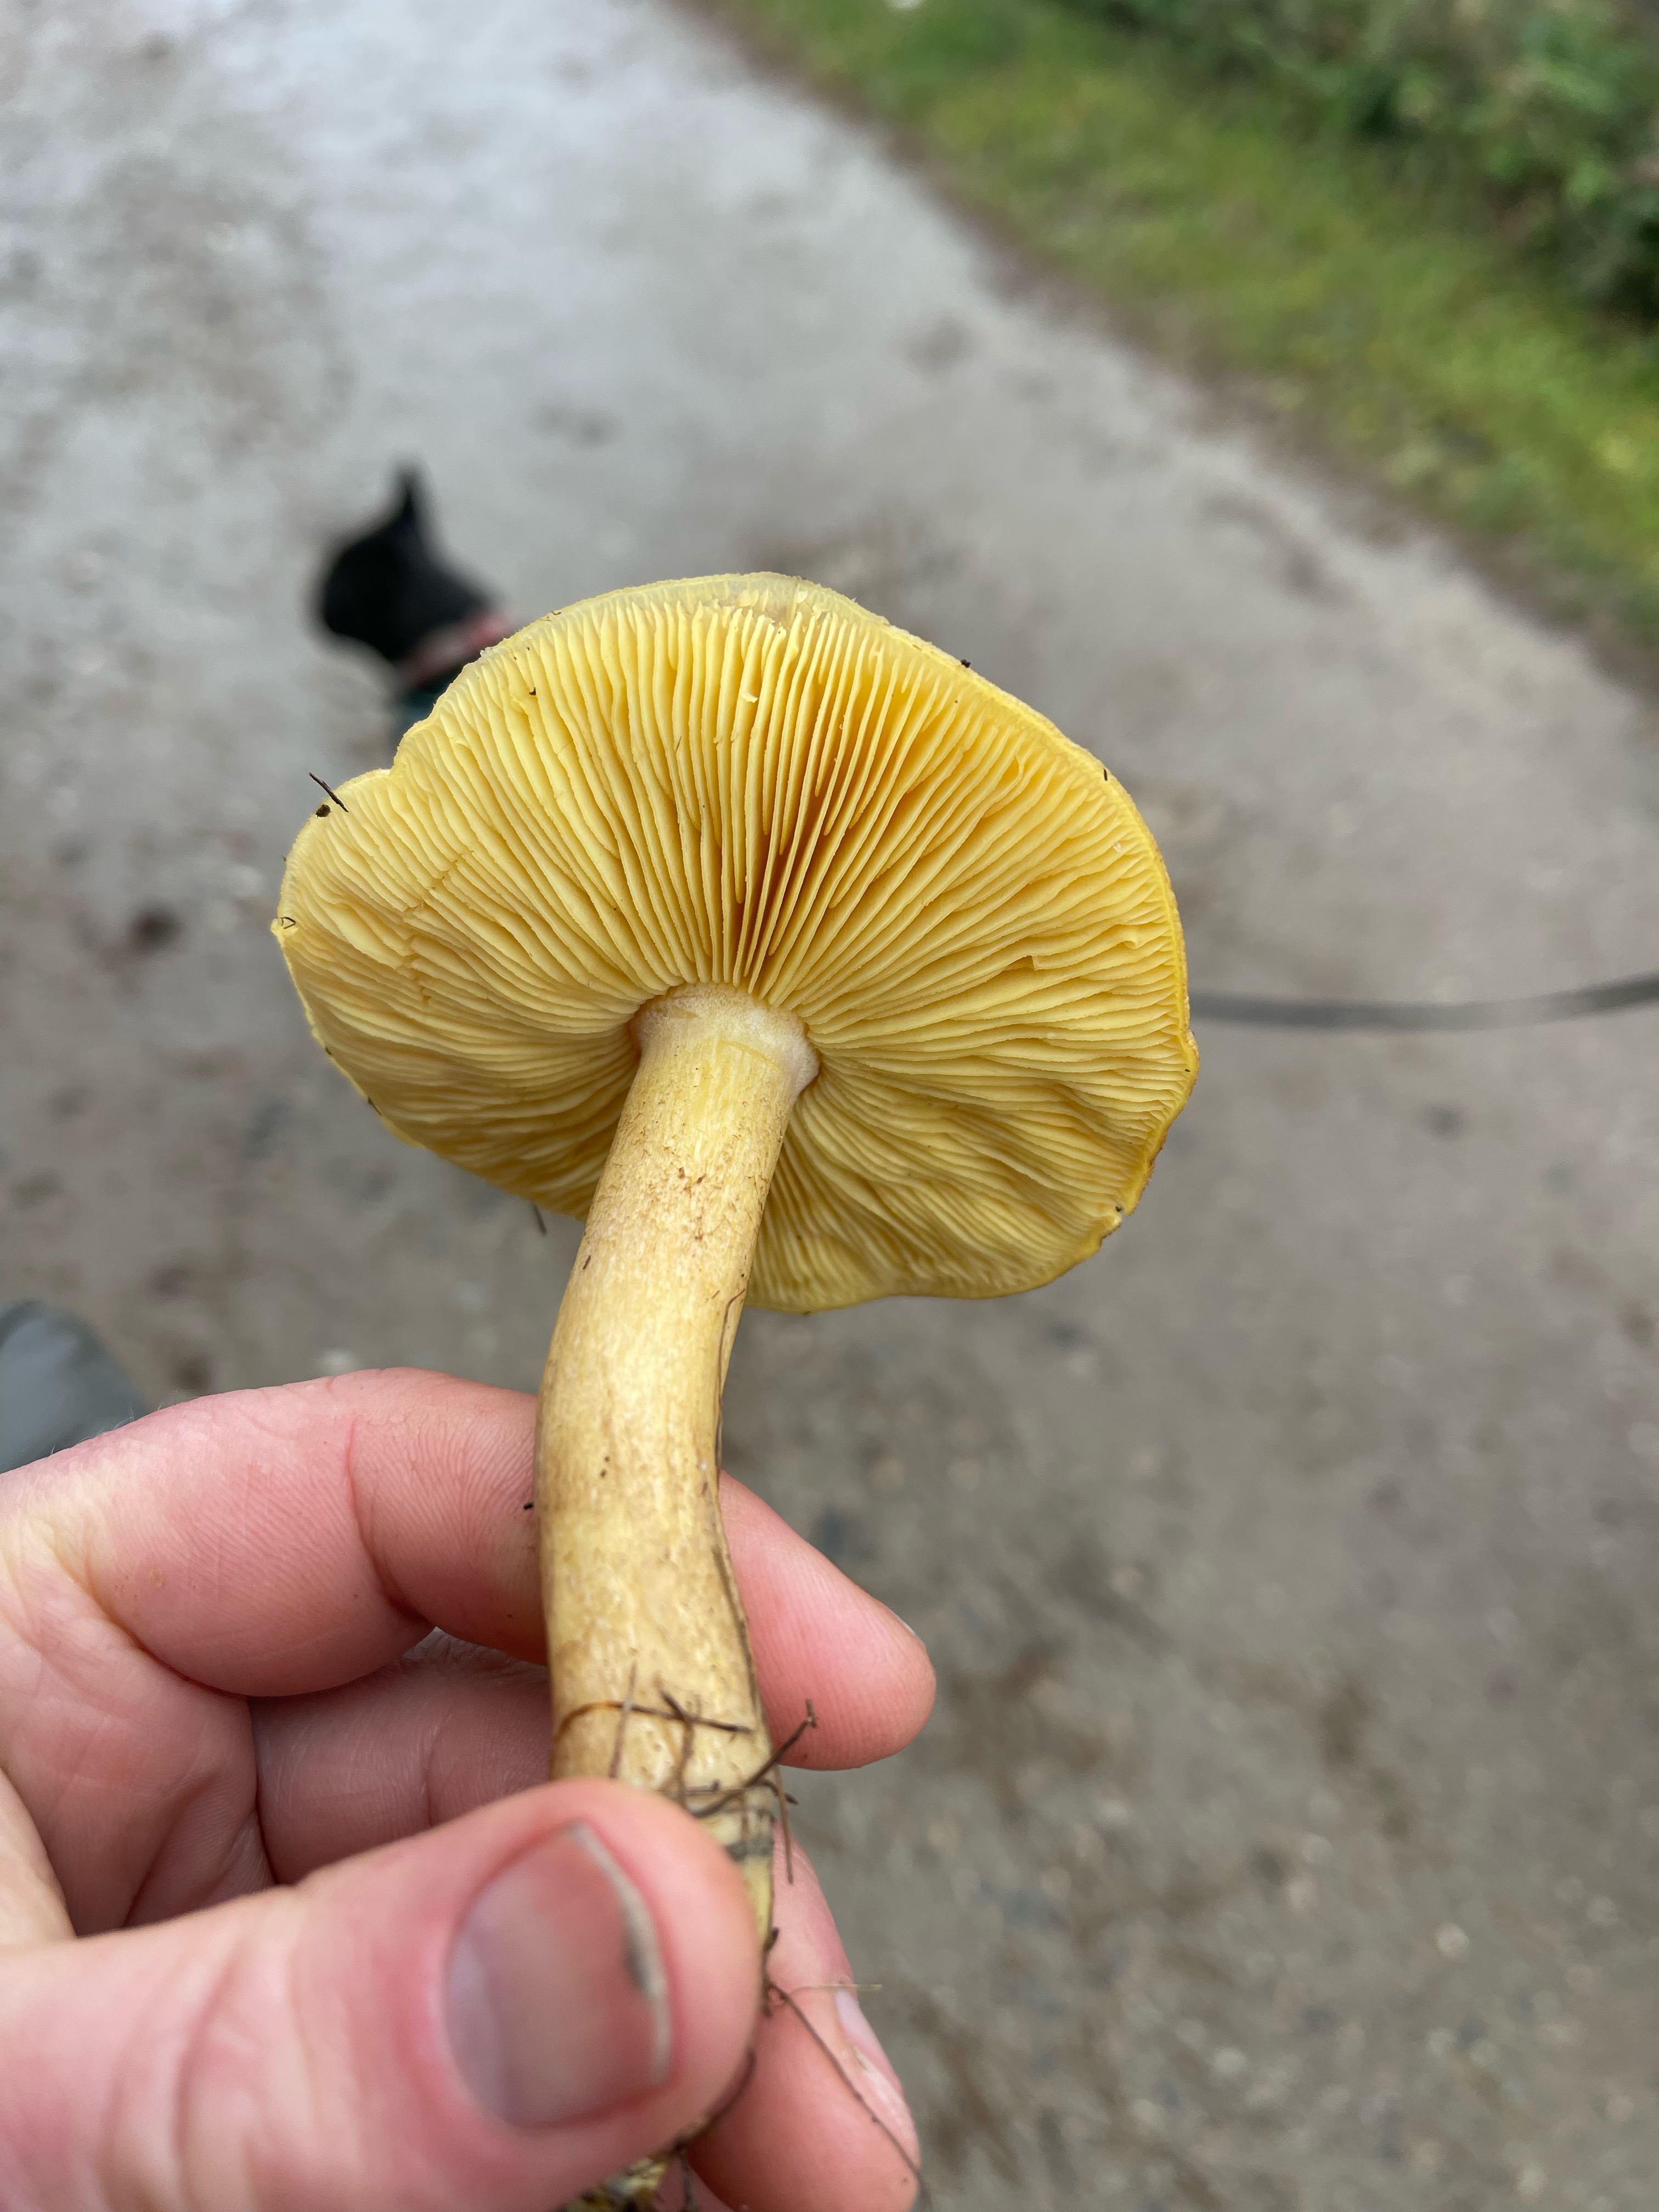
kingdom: Fungi
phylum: Basidiomycota
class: Agaricomycetes
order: Agaricales
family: Tricholomataceae
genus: Tricholomopsis
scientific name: Tricholomopsis rutilans
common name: purpur-væbnerhat
